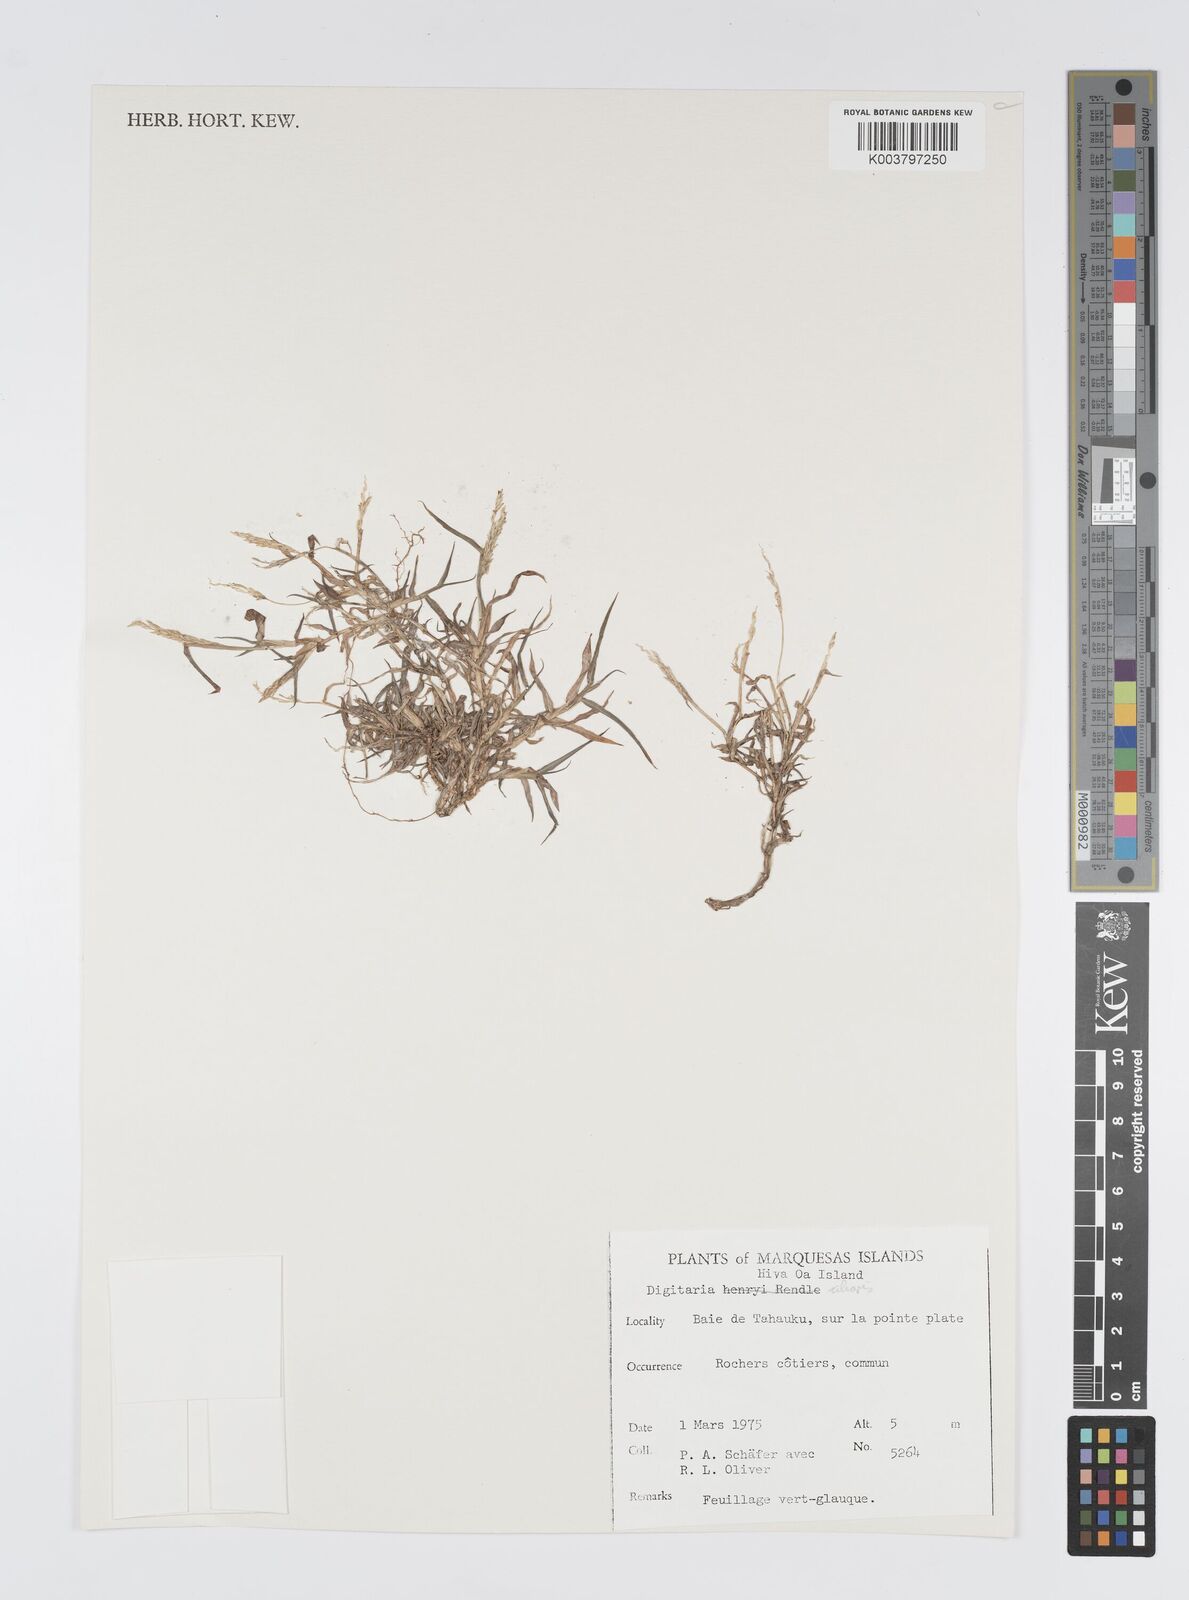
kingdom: Plantae
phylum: Tracheophyta
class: Liliopsida
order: Poales
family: Poaceae
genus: Digitaria
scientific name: Digitaria ciliaris
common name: Tropical finger-grass
